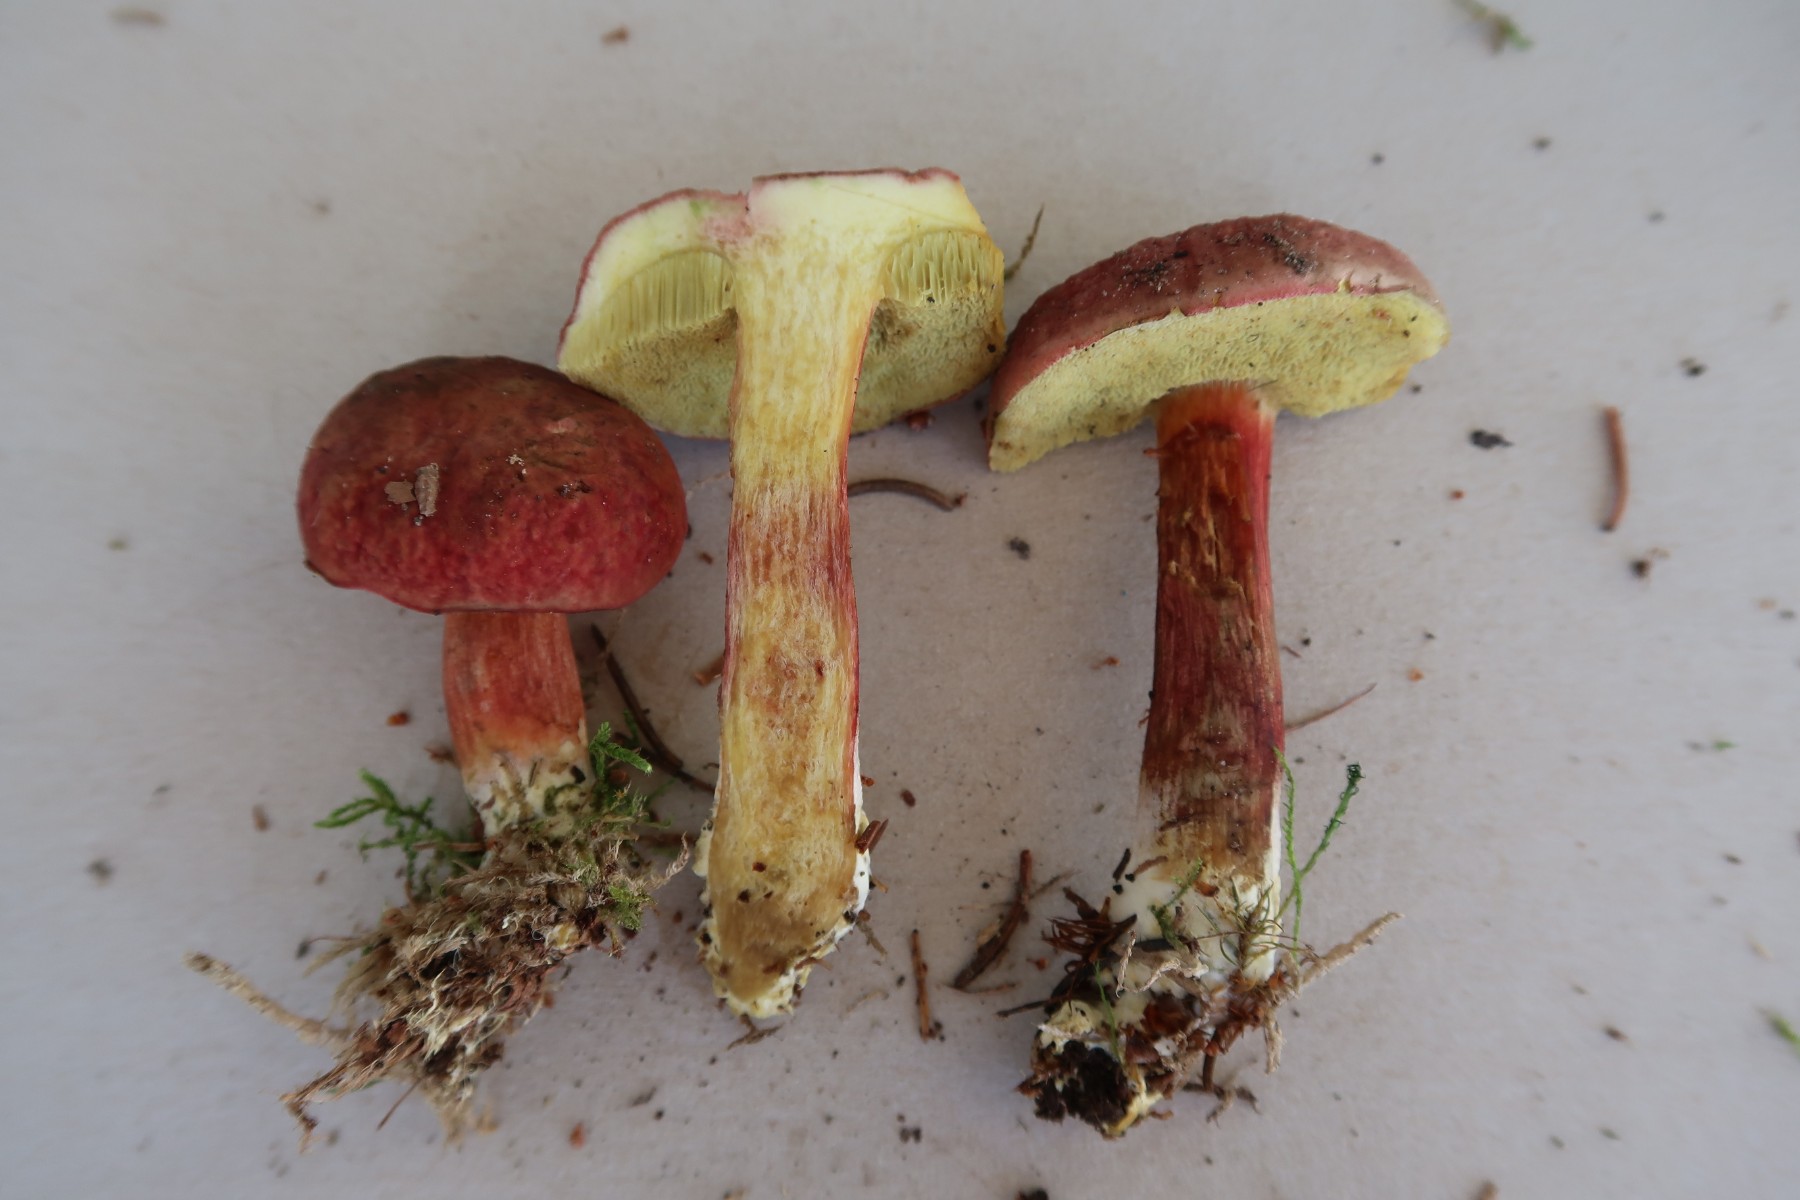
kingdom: Fungi
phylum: Basidiomycota
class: Agaricomycetes
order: Boletales
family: Boletaceae
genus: Xerocomellus
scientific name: Xerocomellus pruinatus
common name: dugget rørhat
